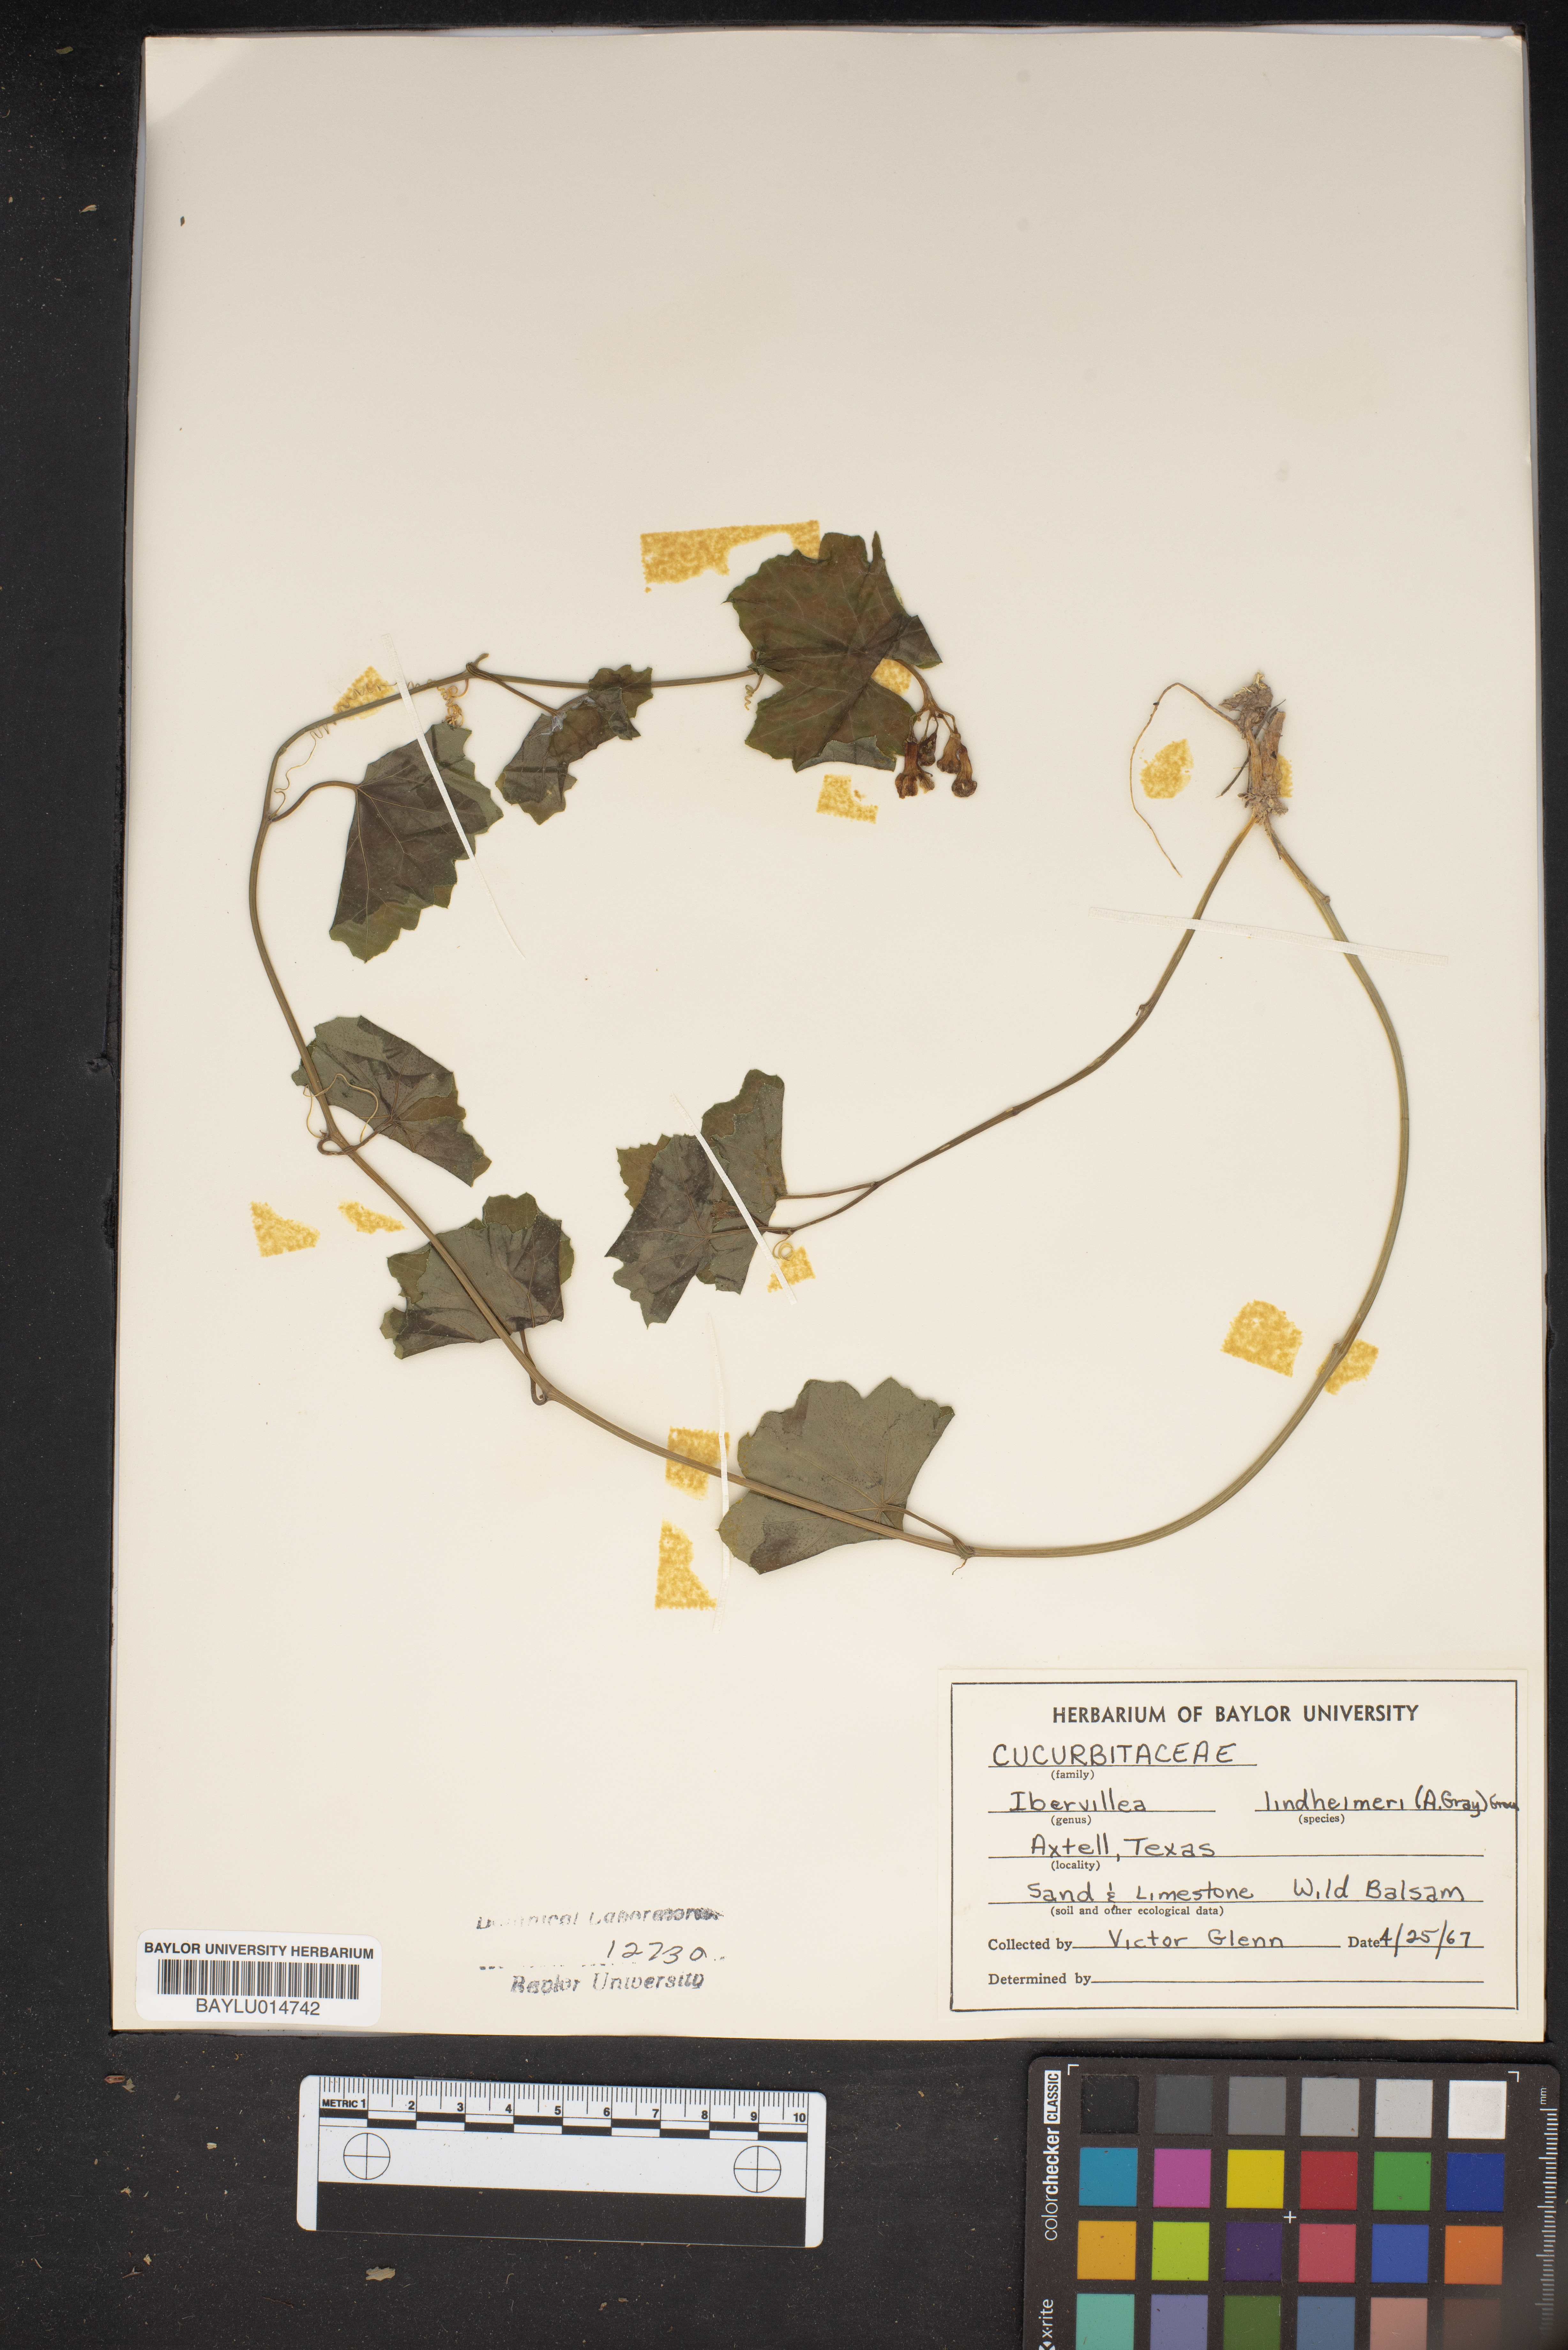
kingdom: Plantae
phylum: Tracheophyta
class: Magnoliopsida
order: Cucurbitales
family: Cucurbitaceae
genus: Ibervillea
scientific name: Ibervillea lindheimeri
